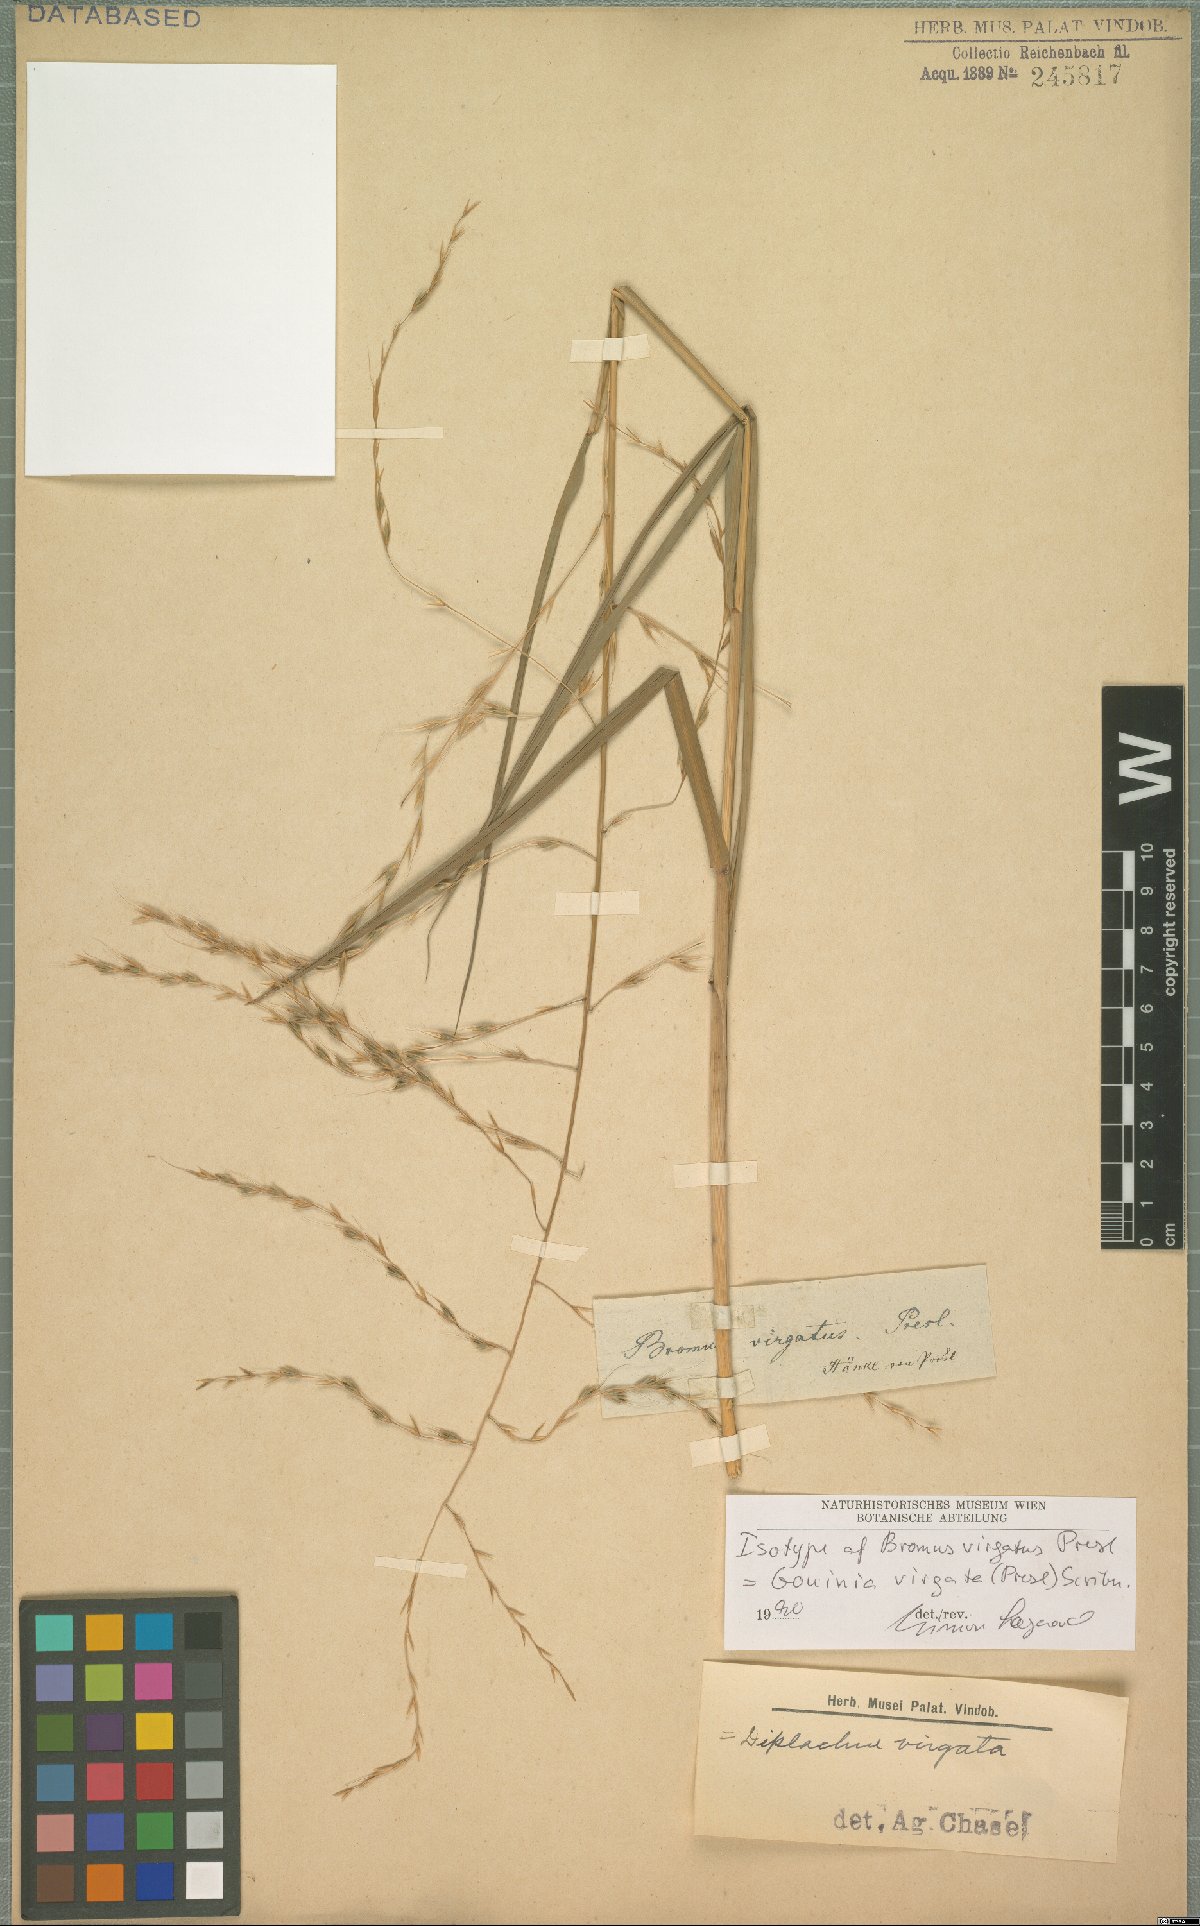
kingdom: Plantae
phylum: Tracheophyta
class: Liliopsida
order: Poales
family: Poaceae
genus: Gouinia
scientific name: Gouinia virgata
